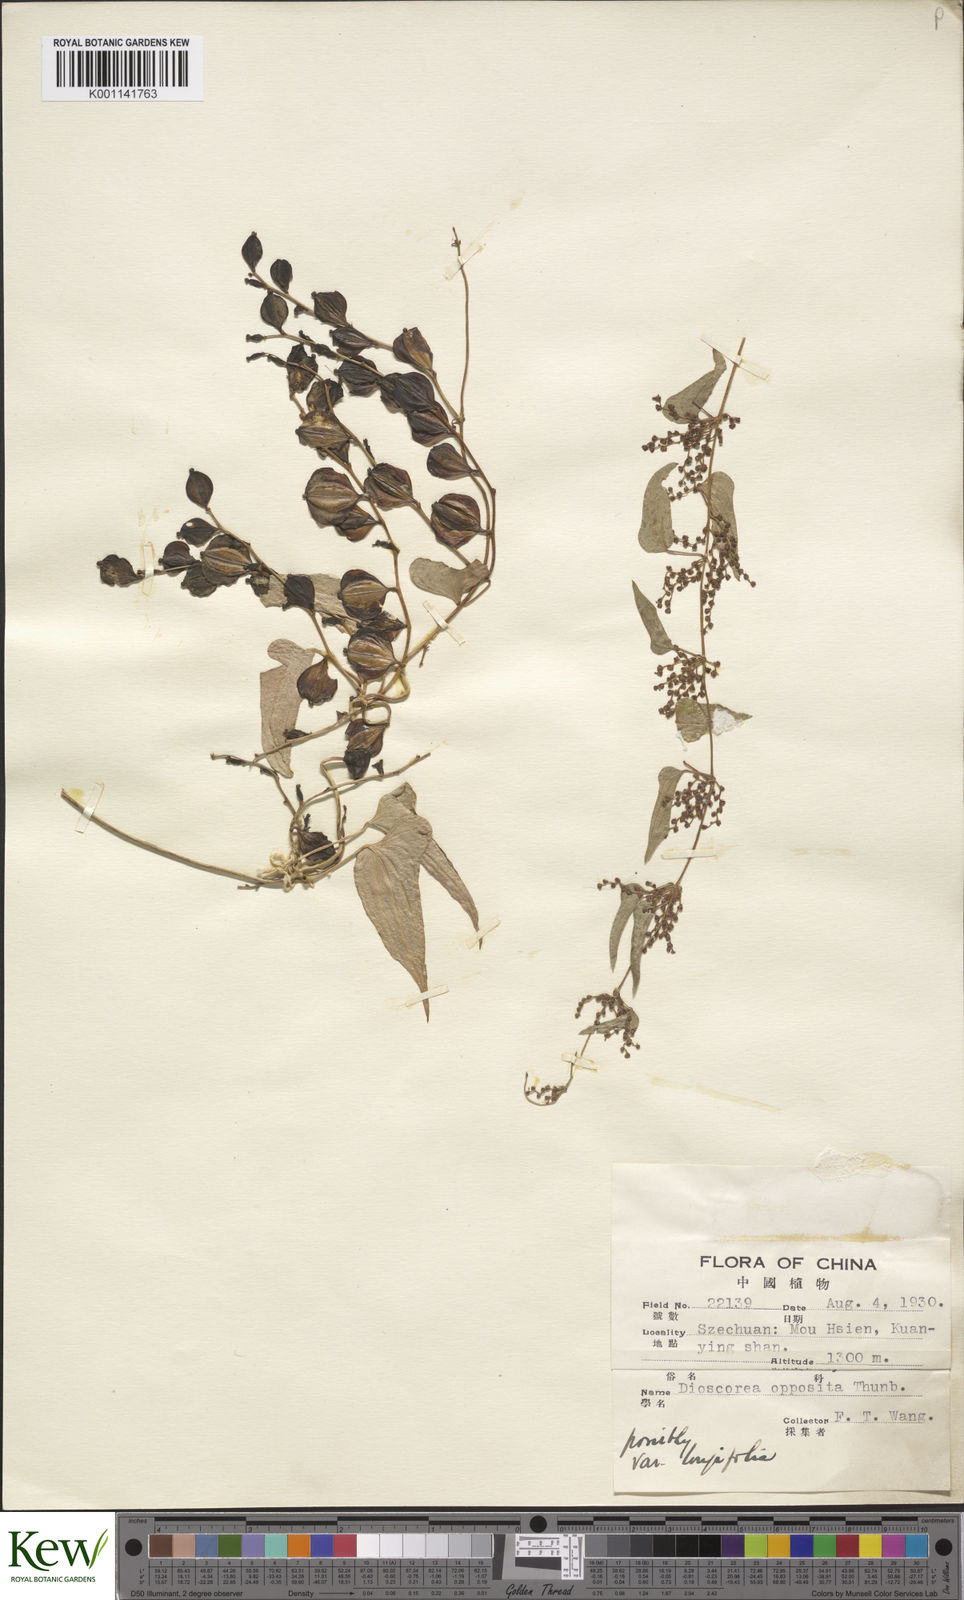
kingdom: Plantae
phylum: Tracheophyta
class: Liliopsida
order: Dioscoreales
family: Dioscoreaceae
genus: Dioscorea
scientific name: Dioscorea oppositifolia
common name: Chinese yam
